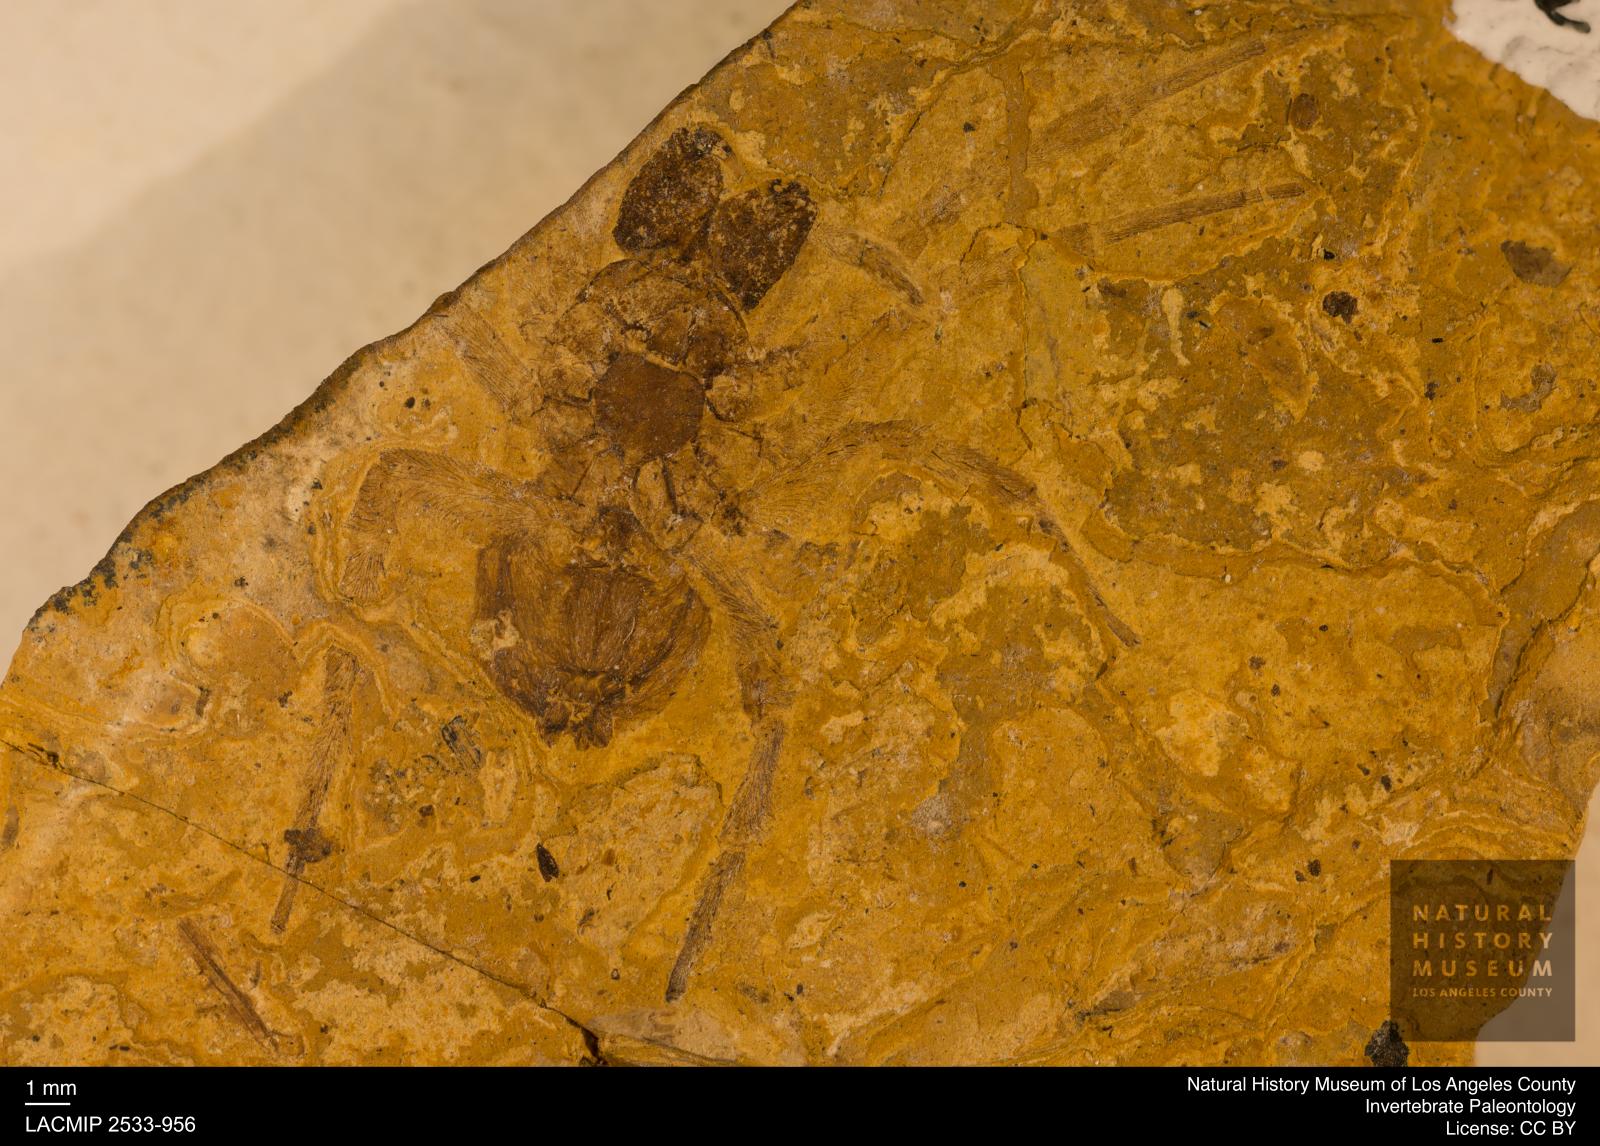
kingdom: Animalia
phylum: Arthropoda
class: Arachnida
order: Araneae
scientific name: Araneae
